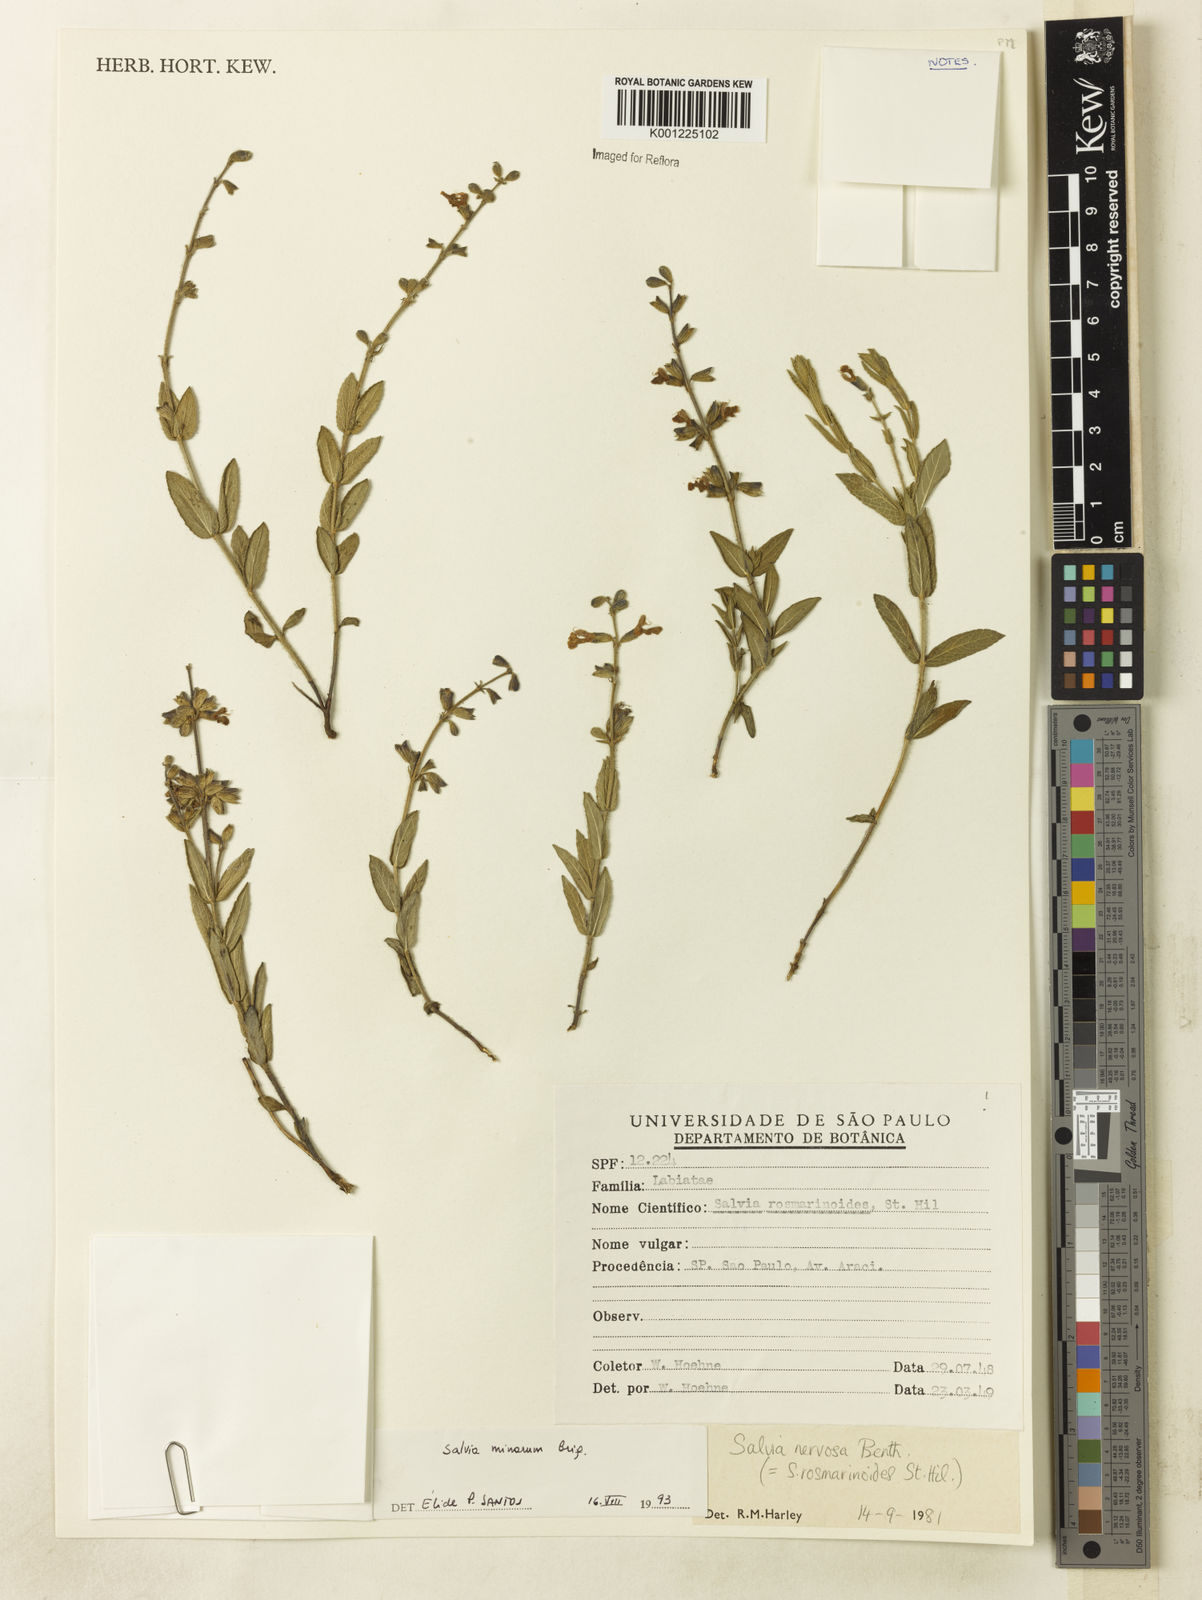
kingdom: Plantae
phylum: Tracheophyta
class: Magnoliopsida
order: Lamiales
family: Lamiaceae
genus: Salvia
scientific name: Salvia minarum
